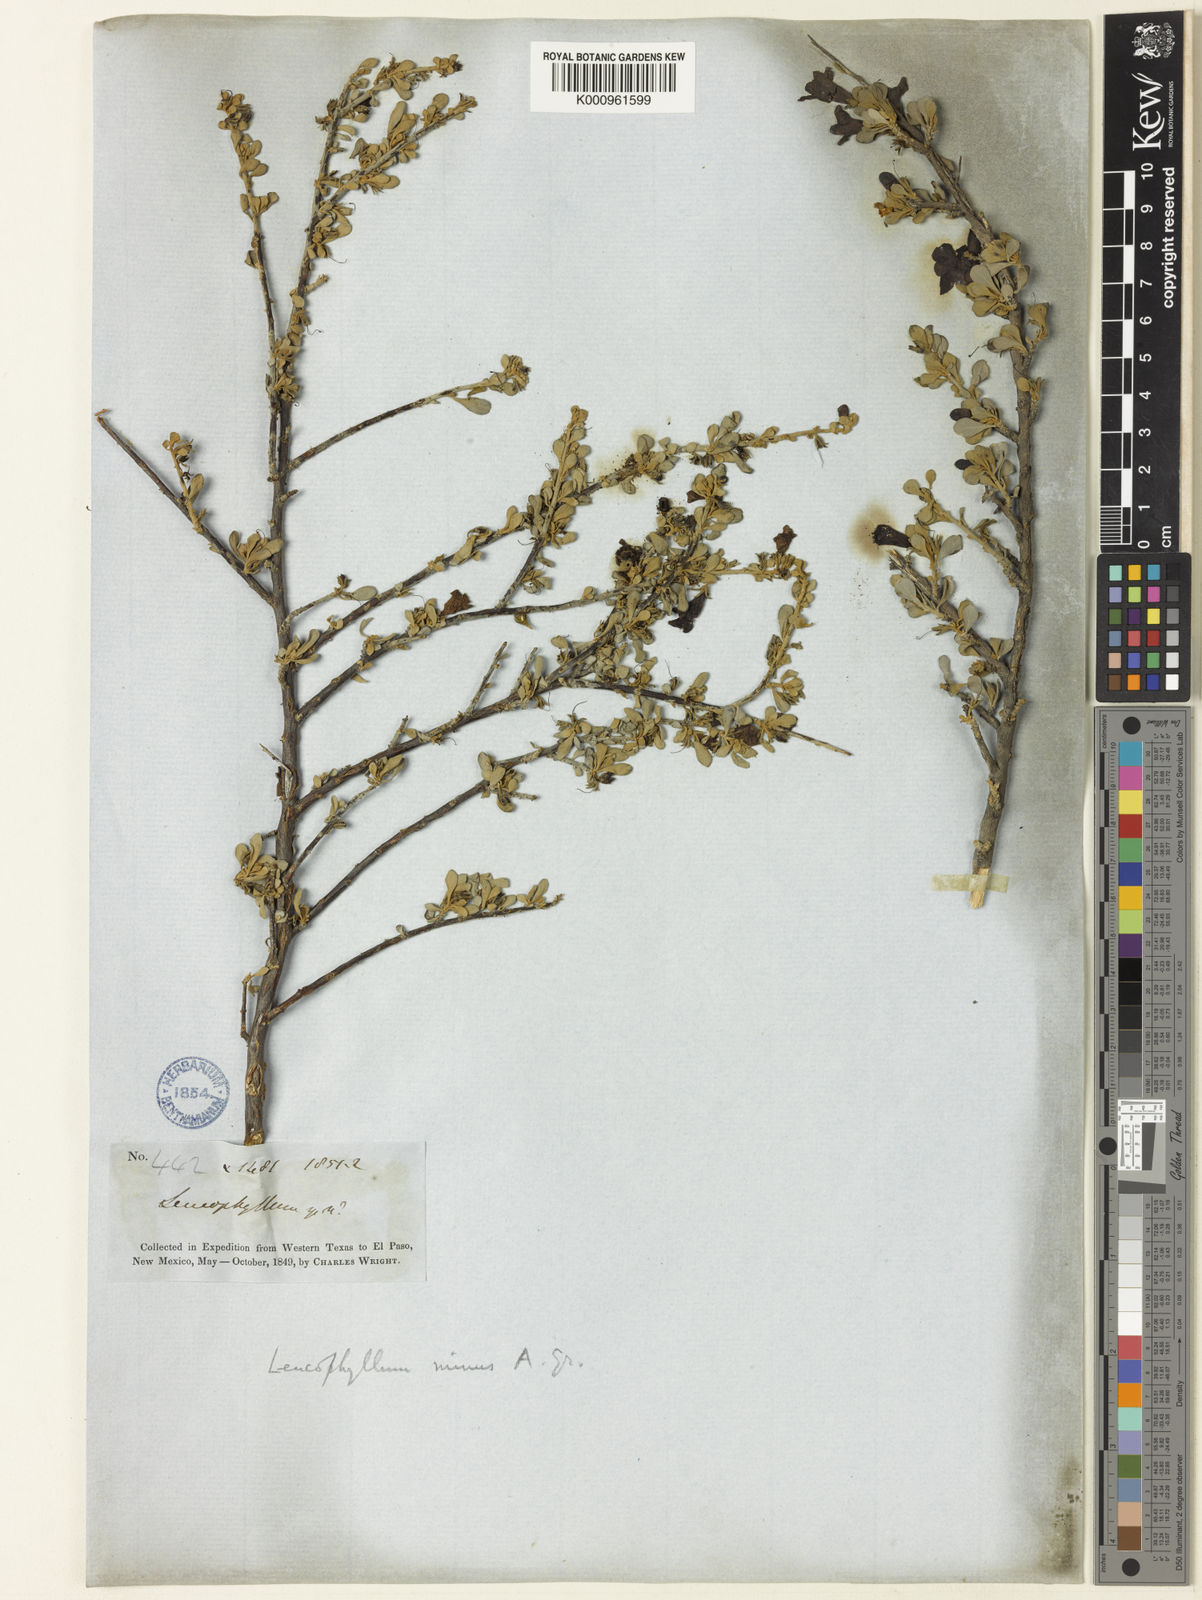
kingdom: Plantae
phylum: Tracheophyta
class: Magnoliopsida
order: Lamiales
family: Scrophulariaceae
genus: Leucophyllum
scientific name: Leucophyllum minus
